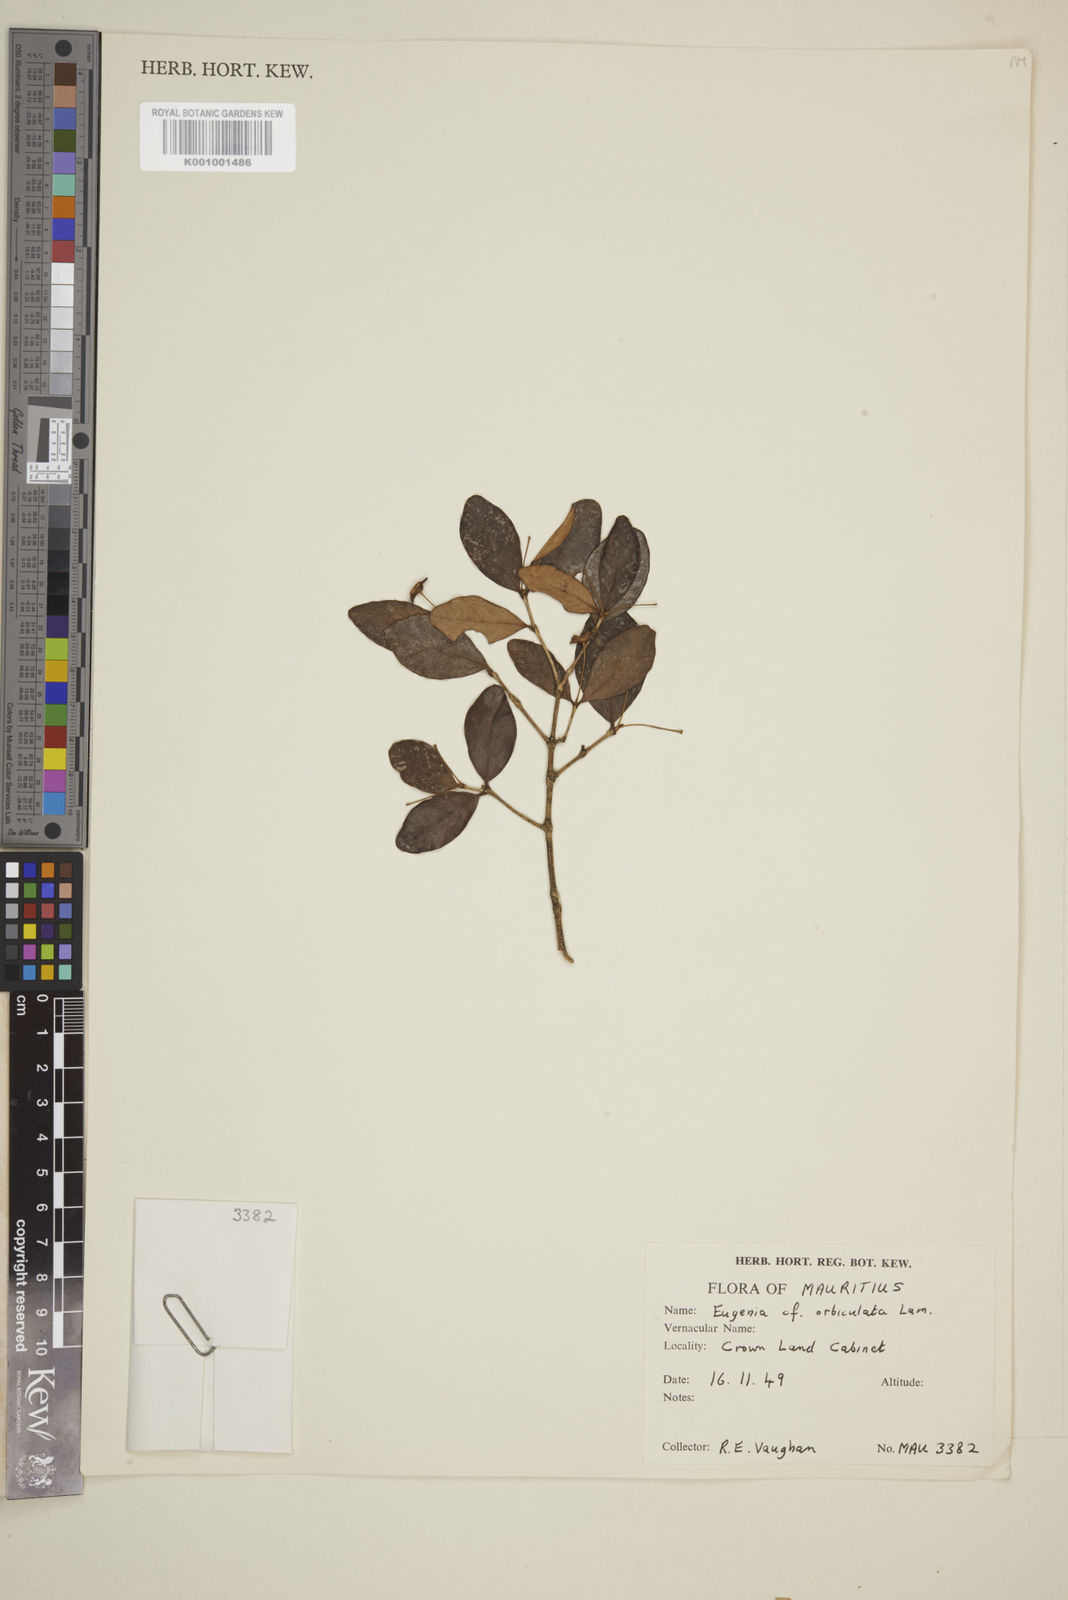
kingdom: Plantae
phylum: Tracheophyta
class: Magnoliopsida
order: Myrtales
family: Myrtaceae
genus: Eugenia
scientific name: Eugenia orbiculata
